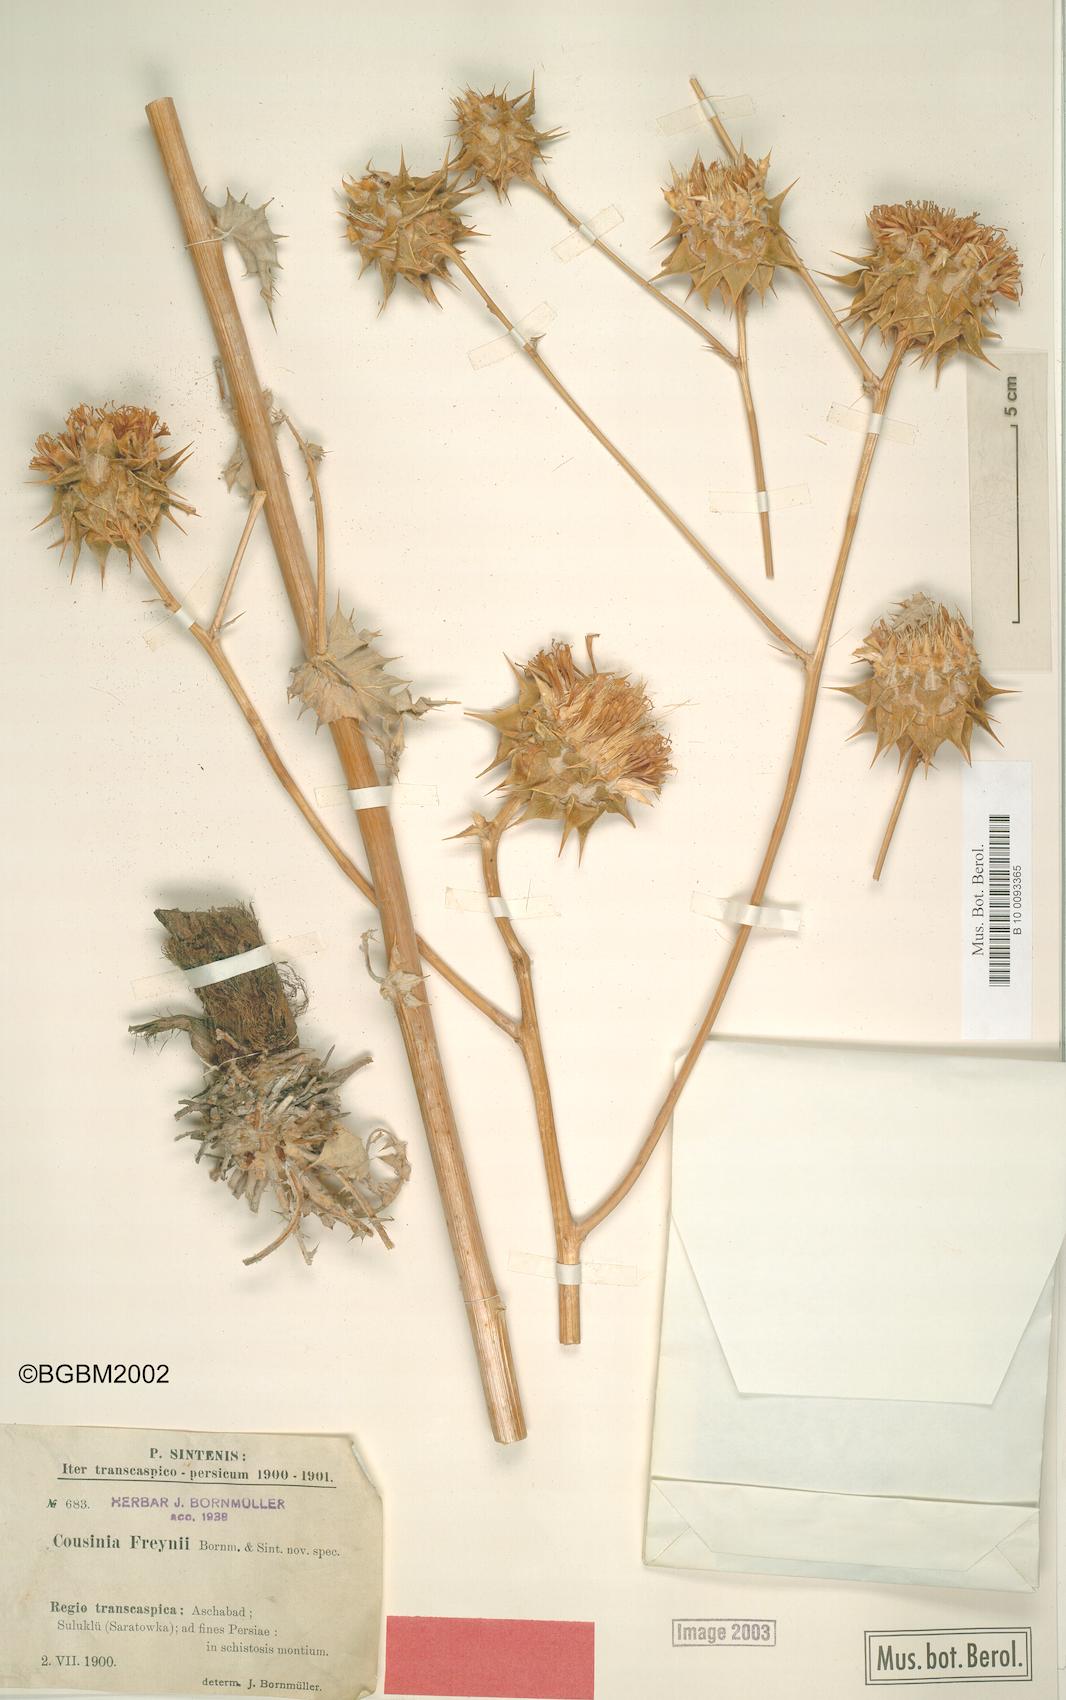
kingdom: Plantae
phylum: Tracheophyta
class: Magnoliopsida
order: Asterales
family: Asteraceae
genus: Cousinia
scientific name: Cousinia freynii
